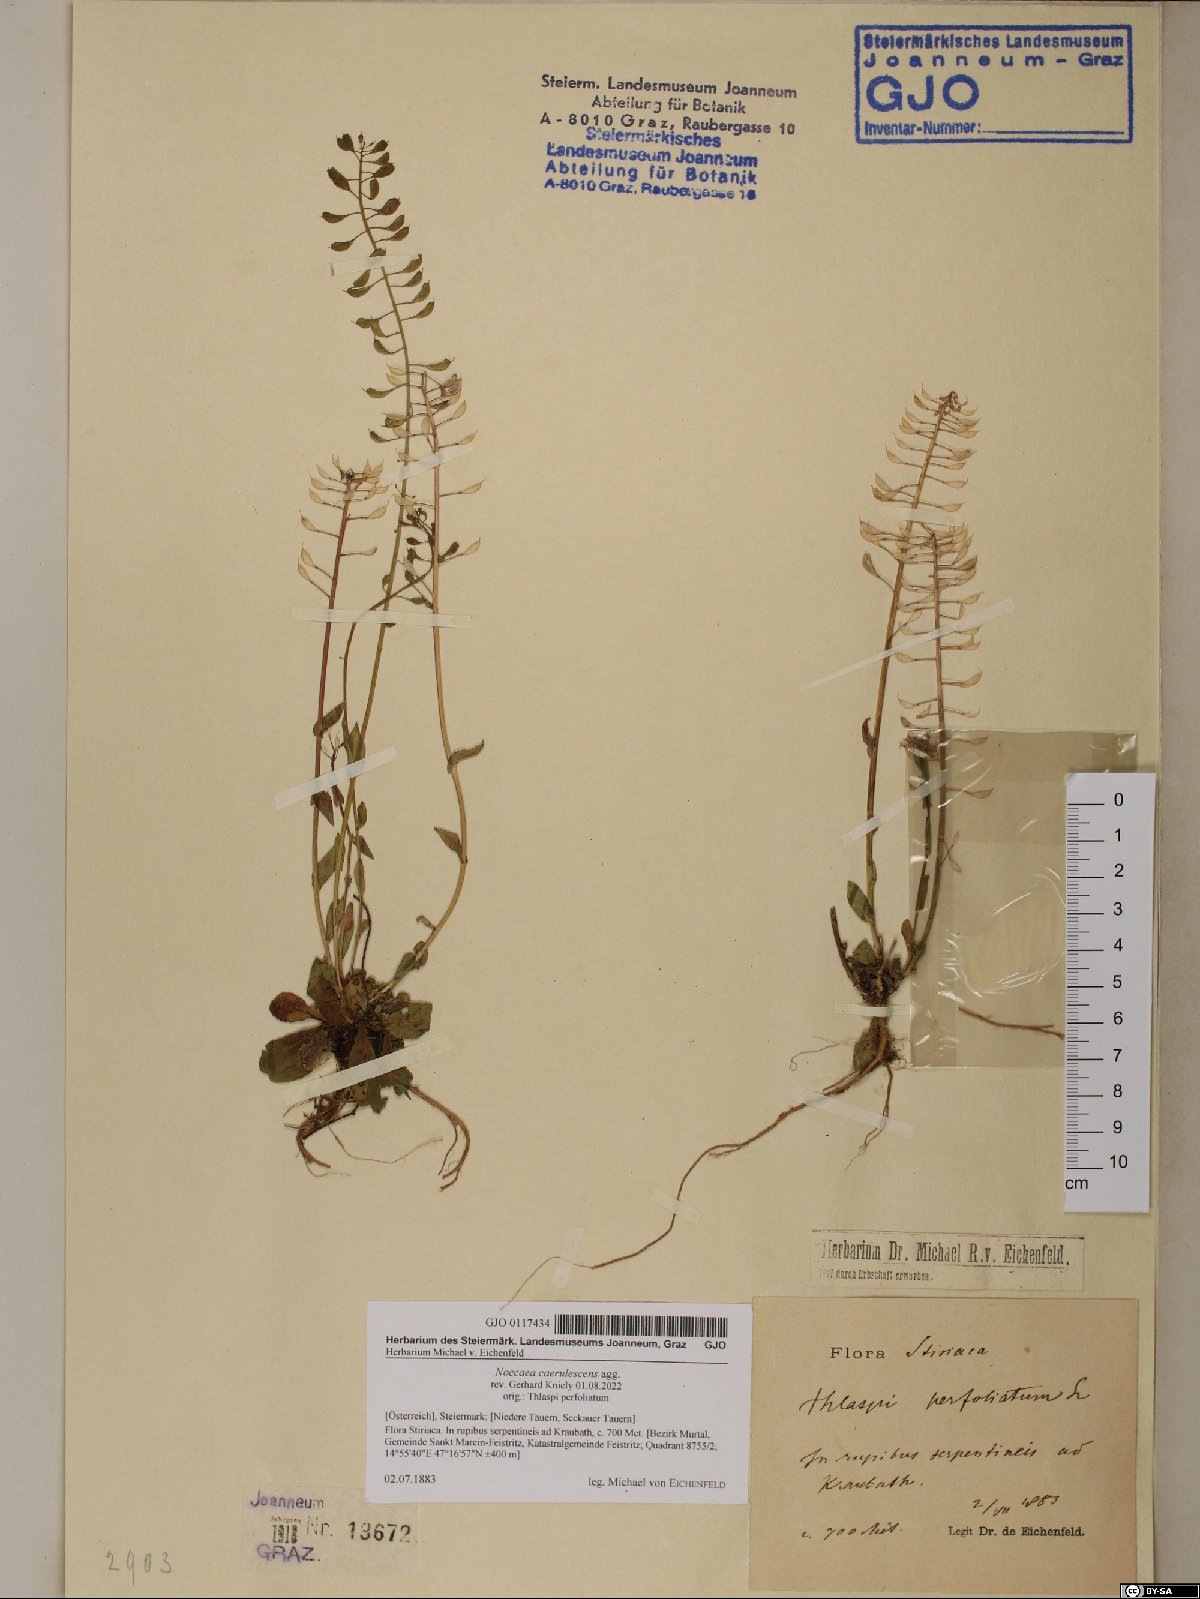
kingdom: Plantae
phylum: Tracheophyta
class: Magnoliopsida
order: Brassicales
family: Brassicaceae
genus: Noccaea
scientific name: Noccaea caerulescens
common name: Alpine pennycress
